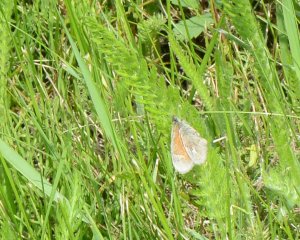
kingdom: Animalia
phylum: Arthropoda
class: Insecta
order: Lepidoptera
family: Nymphalidae
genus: Coenonympha
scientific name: Coenonympha tullia
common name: Large Heath
